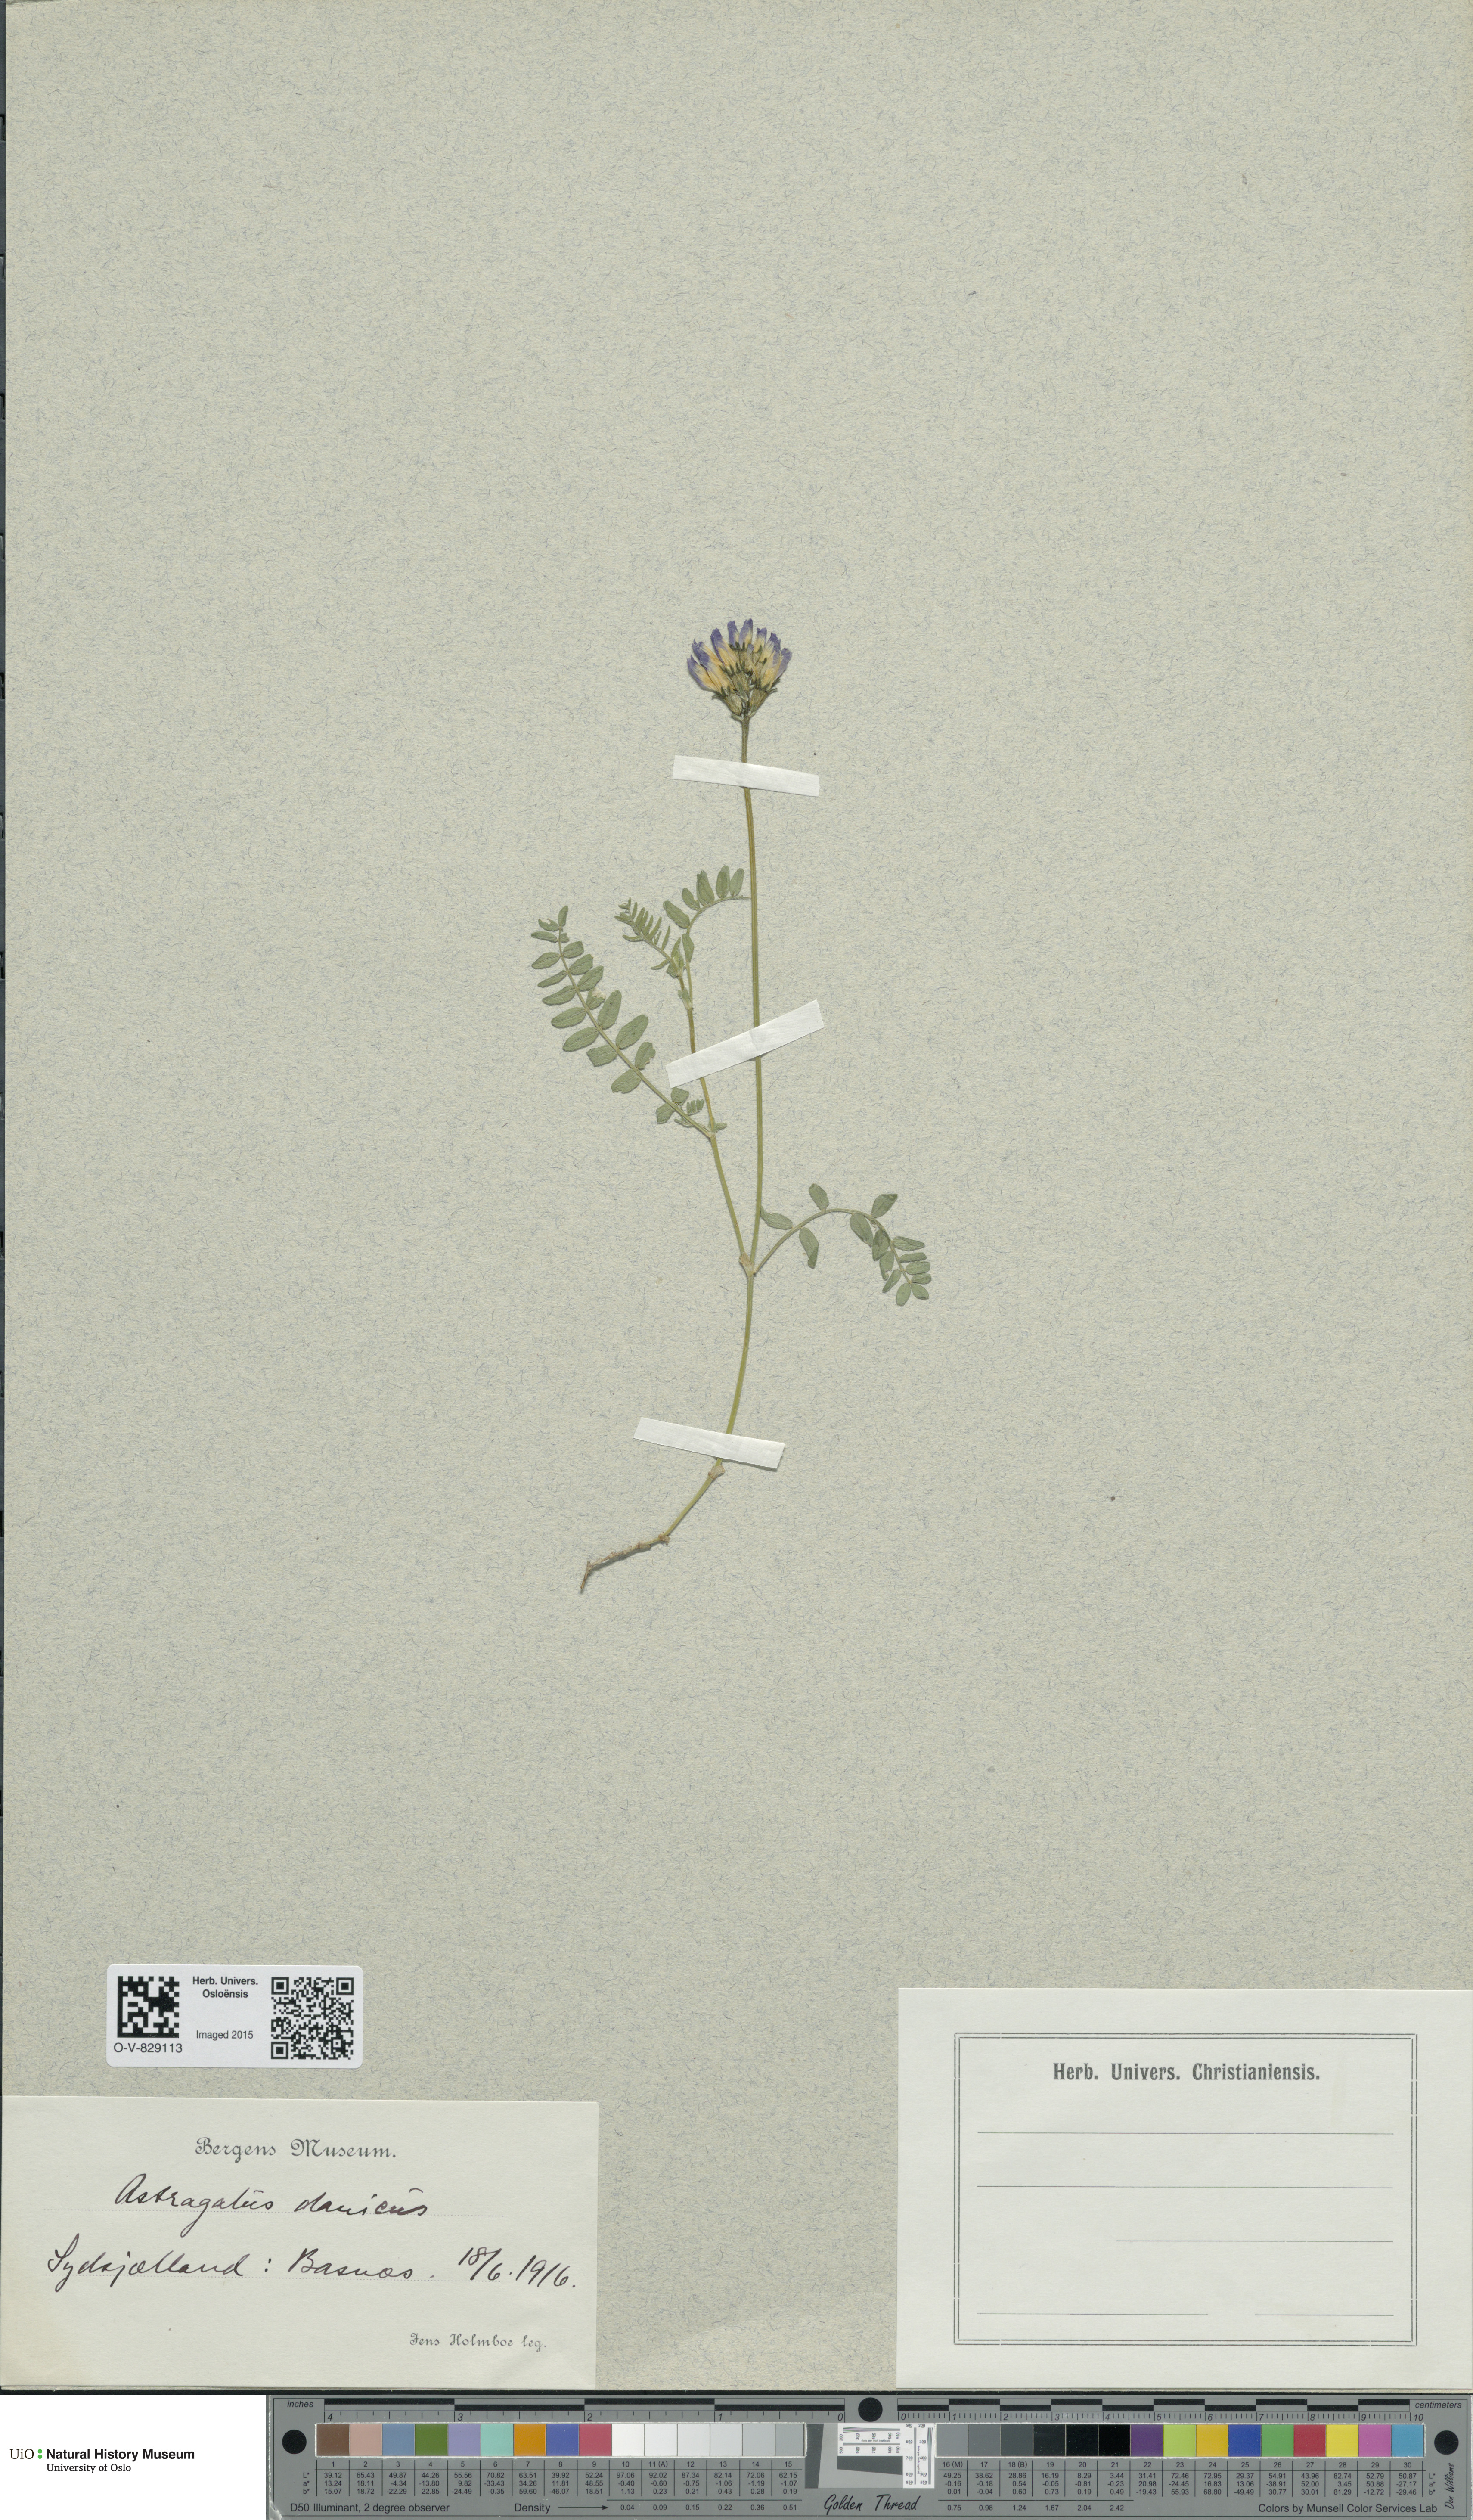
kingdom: Plantae
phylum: Tracheophyta
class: Magnoliopsida
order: Fabales
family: Fabaceae
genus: Astragalus
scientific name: Astragalus danicus
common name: Purple milk-vetch
